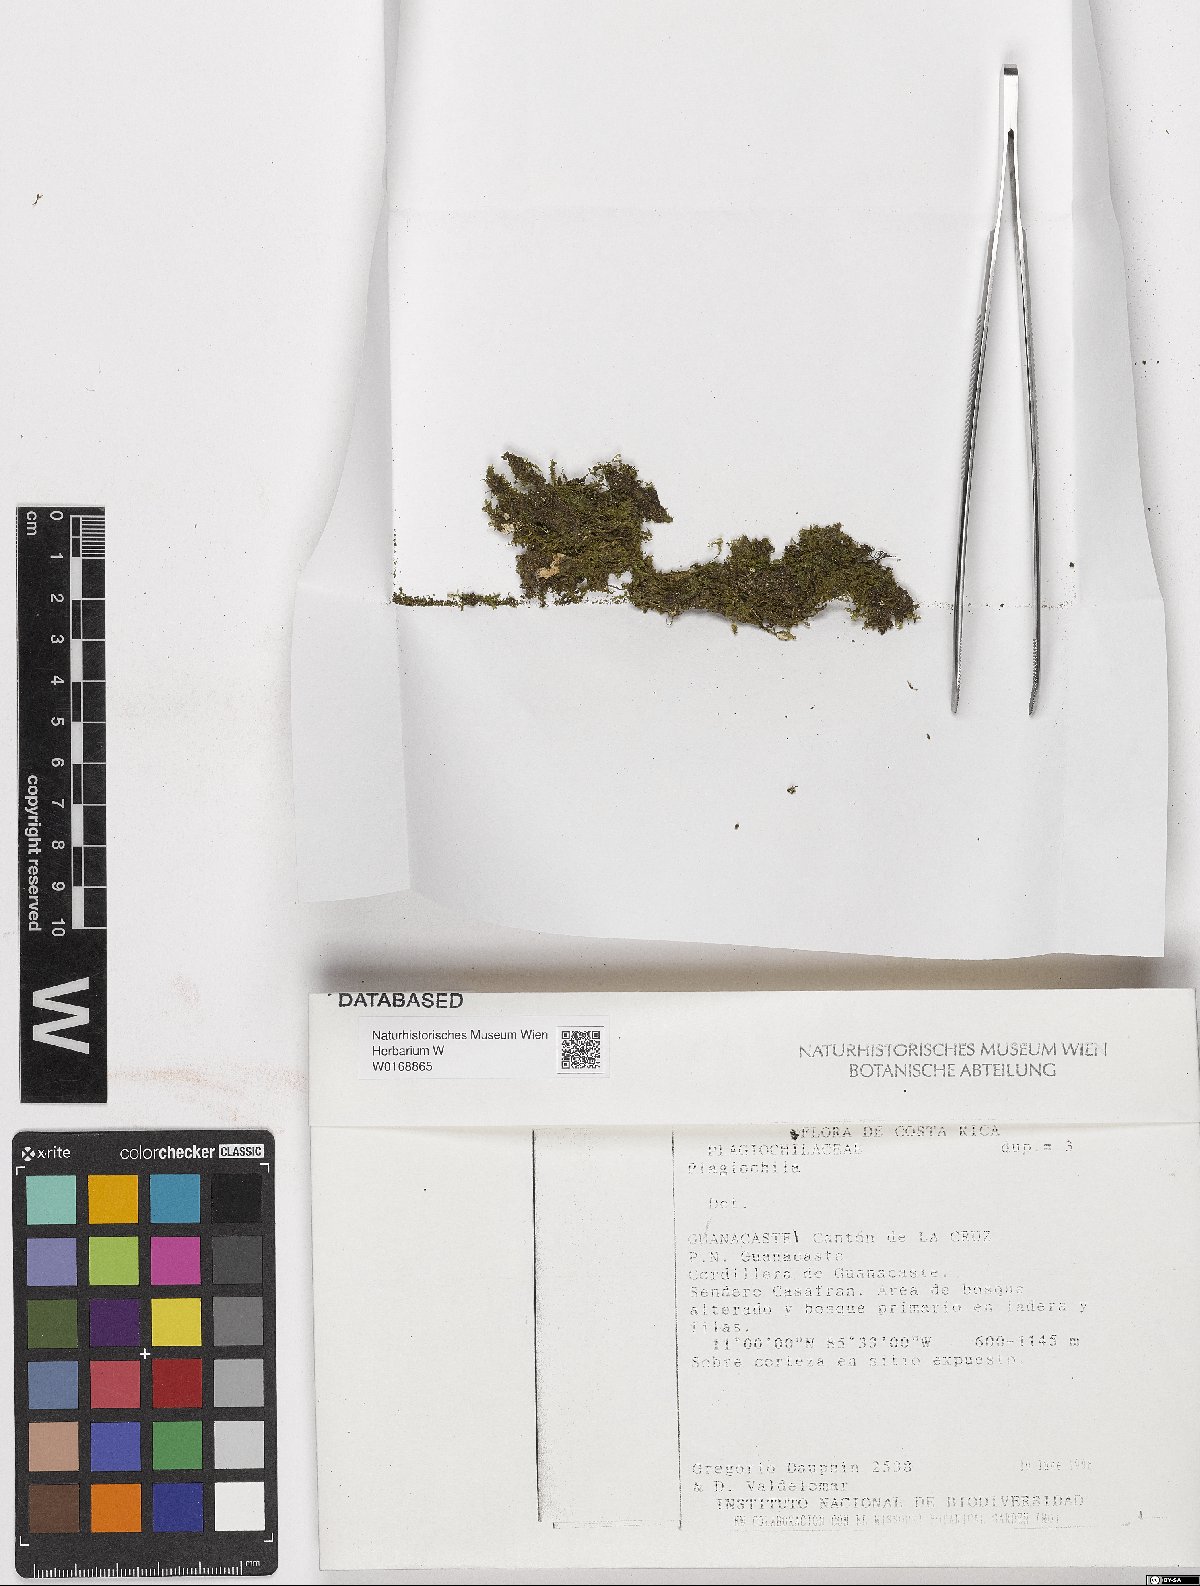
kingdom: Plantae
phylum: Marchantiophyta
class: Jungermanniopsida
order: Jungermanniales
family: Plagiochilaceae
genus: Plagiochila
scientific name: Plagiochila
